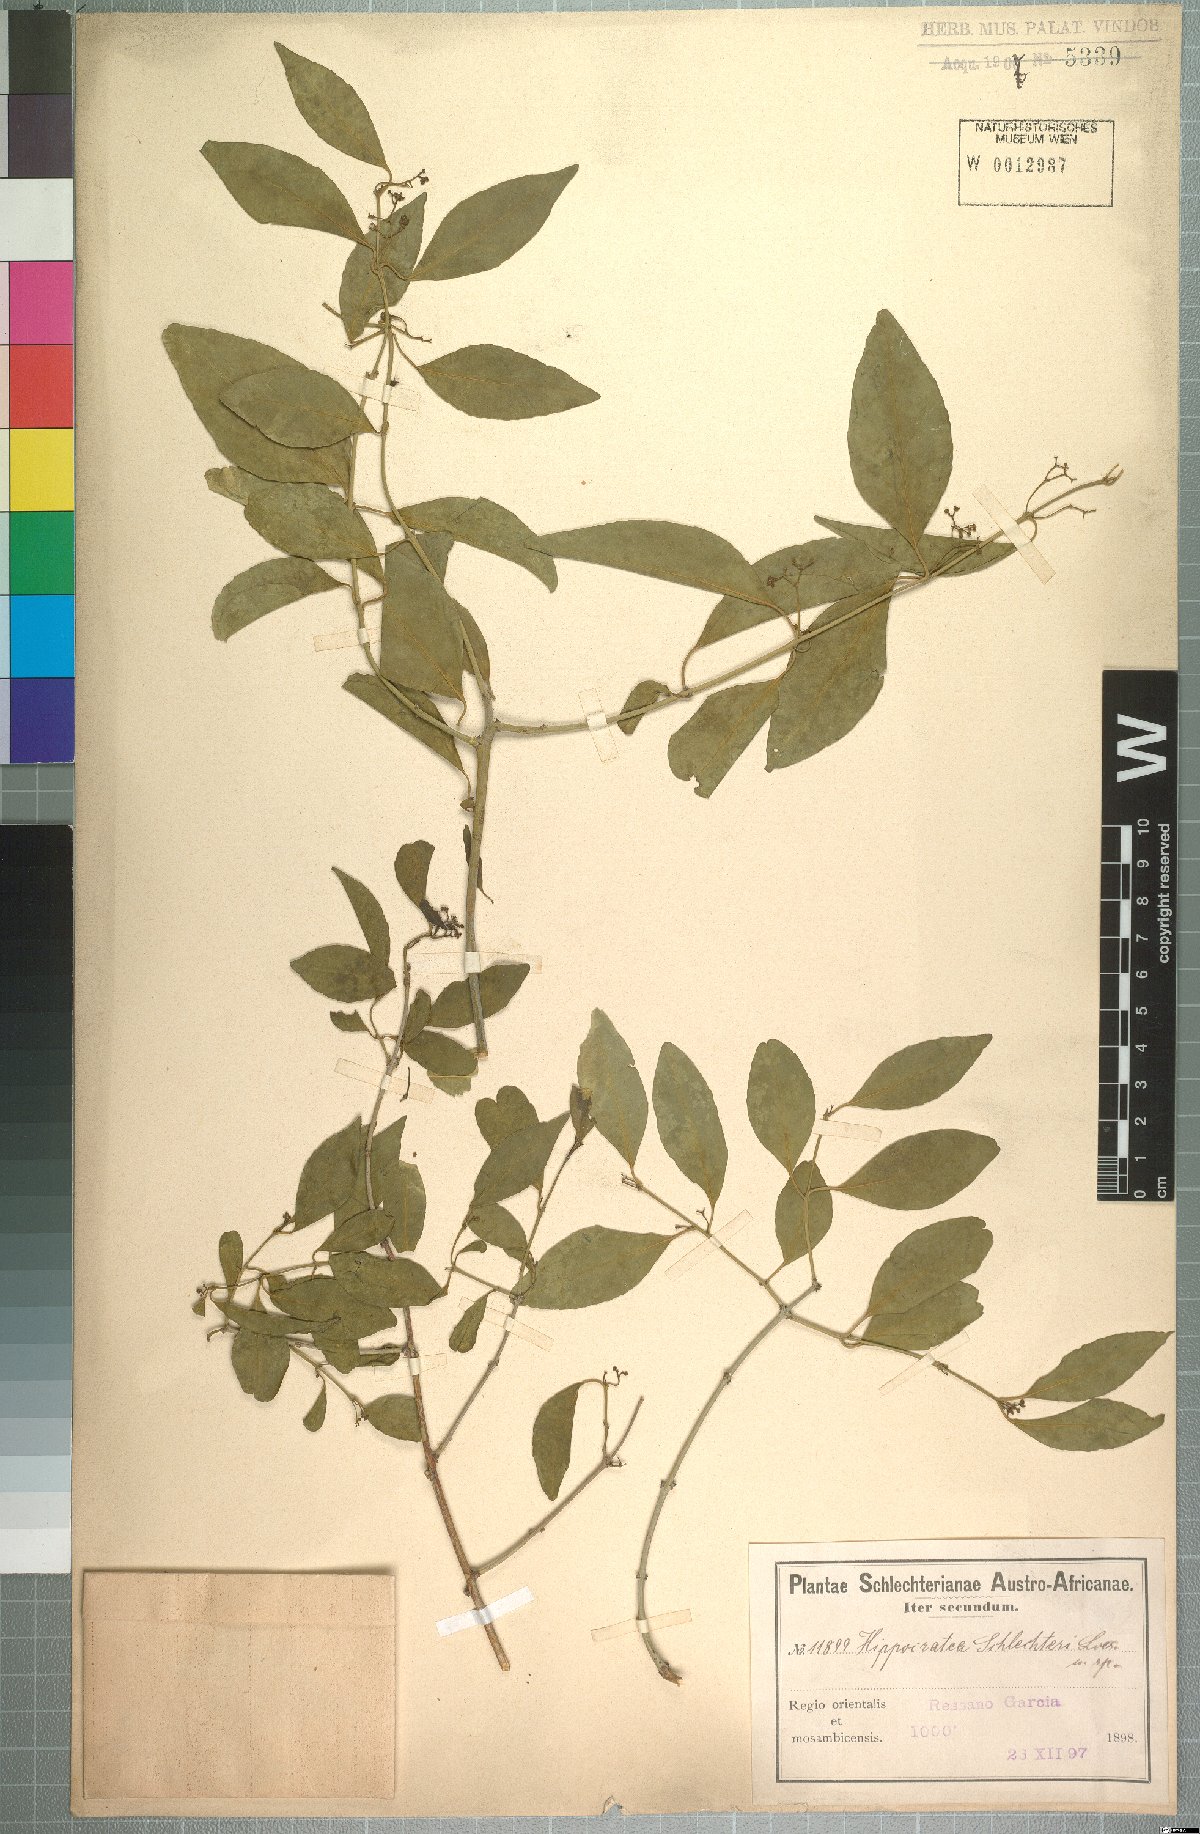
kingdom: Plantae
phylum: Tracheophyta
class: Magnoliopsida
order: Celastrales
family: Celastraceae
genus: Pristimera
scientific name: Pristimera longipetiolata
